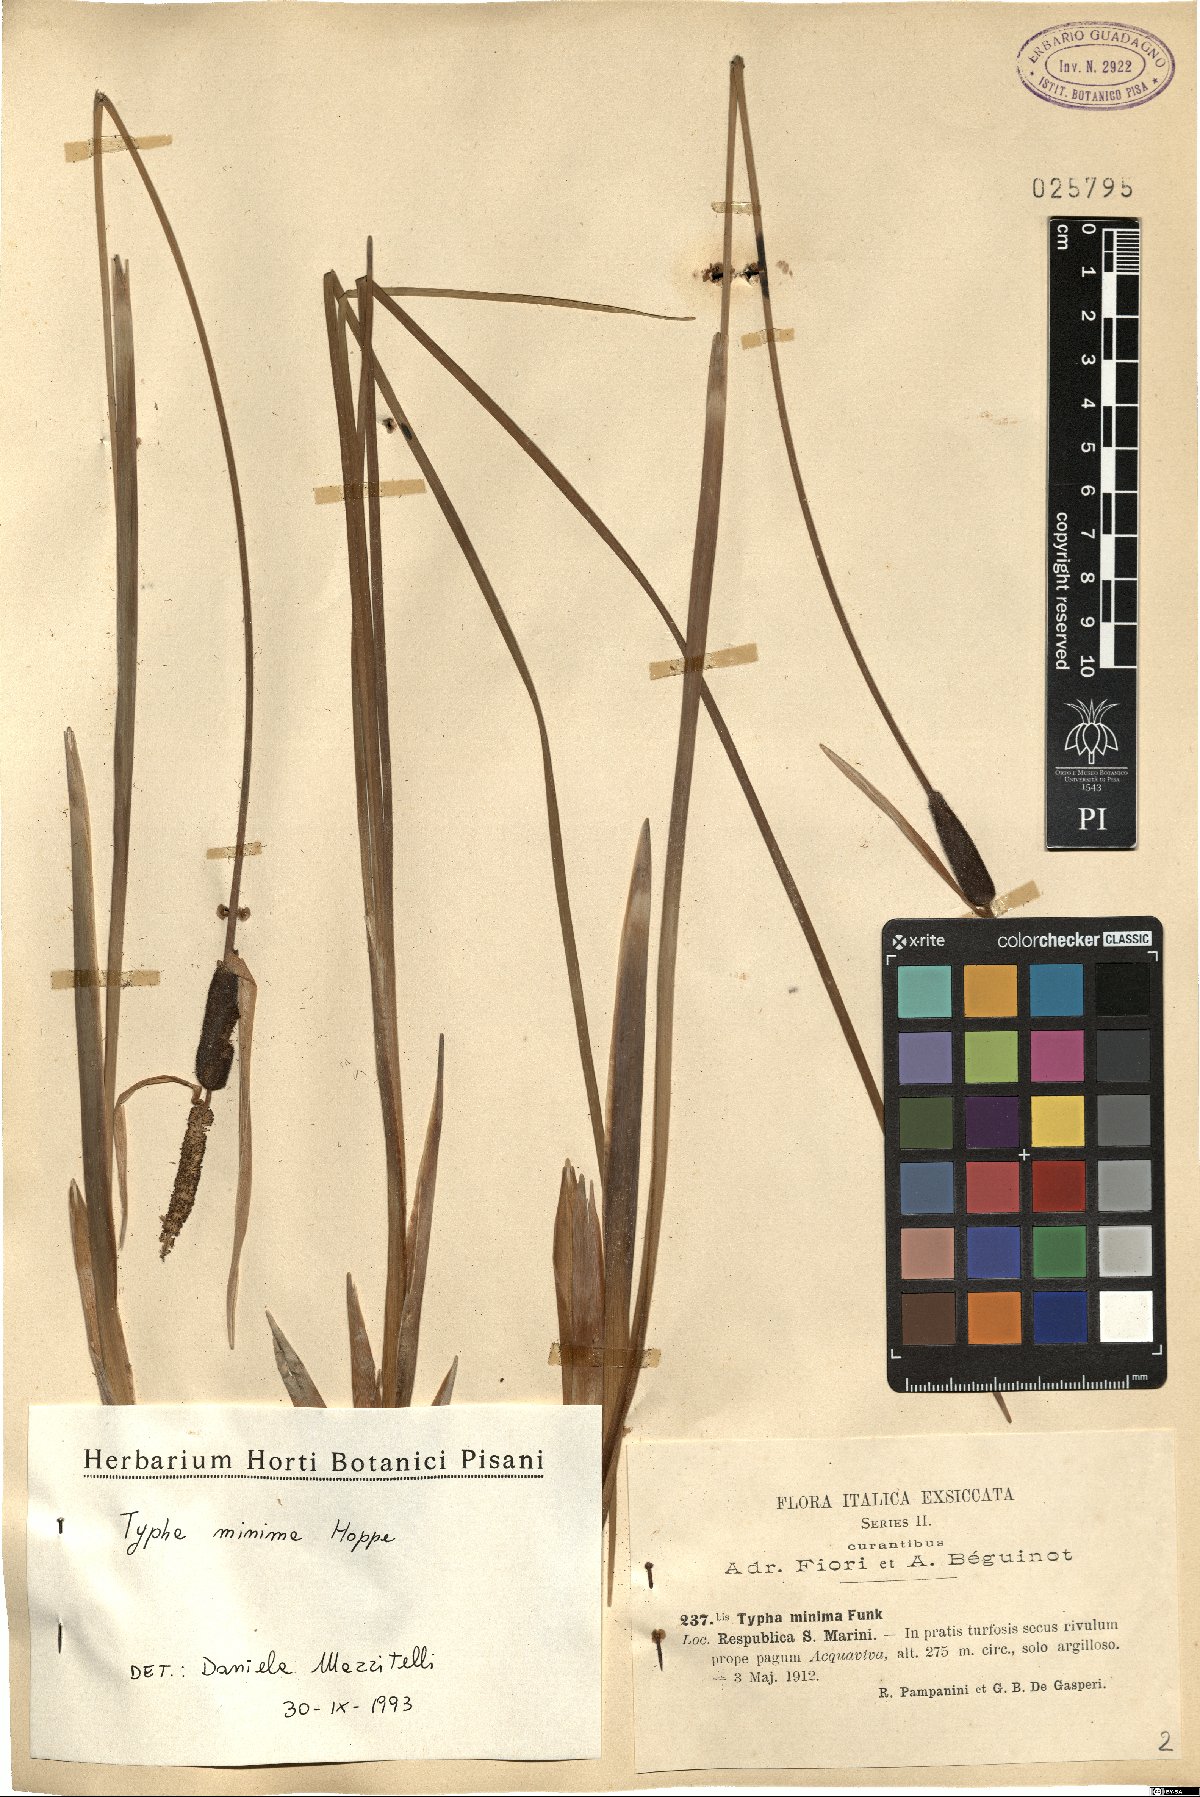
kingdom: Plantae
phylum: Tracheophyta
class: Liliopsida
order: Poales
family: Typhaceae
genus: Typha
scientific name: Typha minima
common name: Dwarf bulrush
